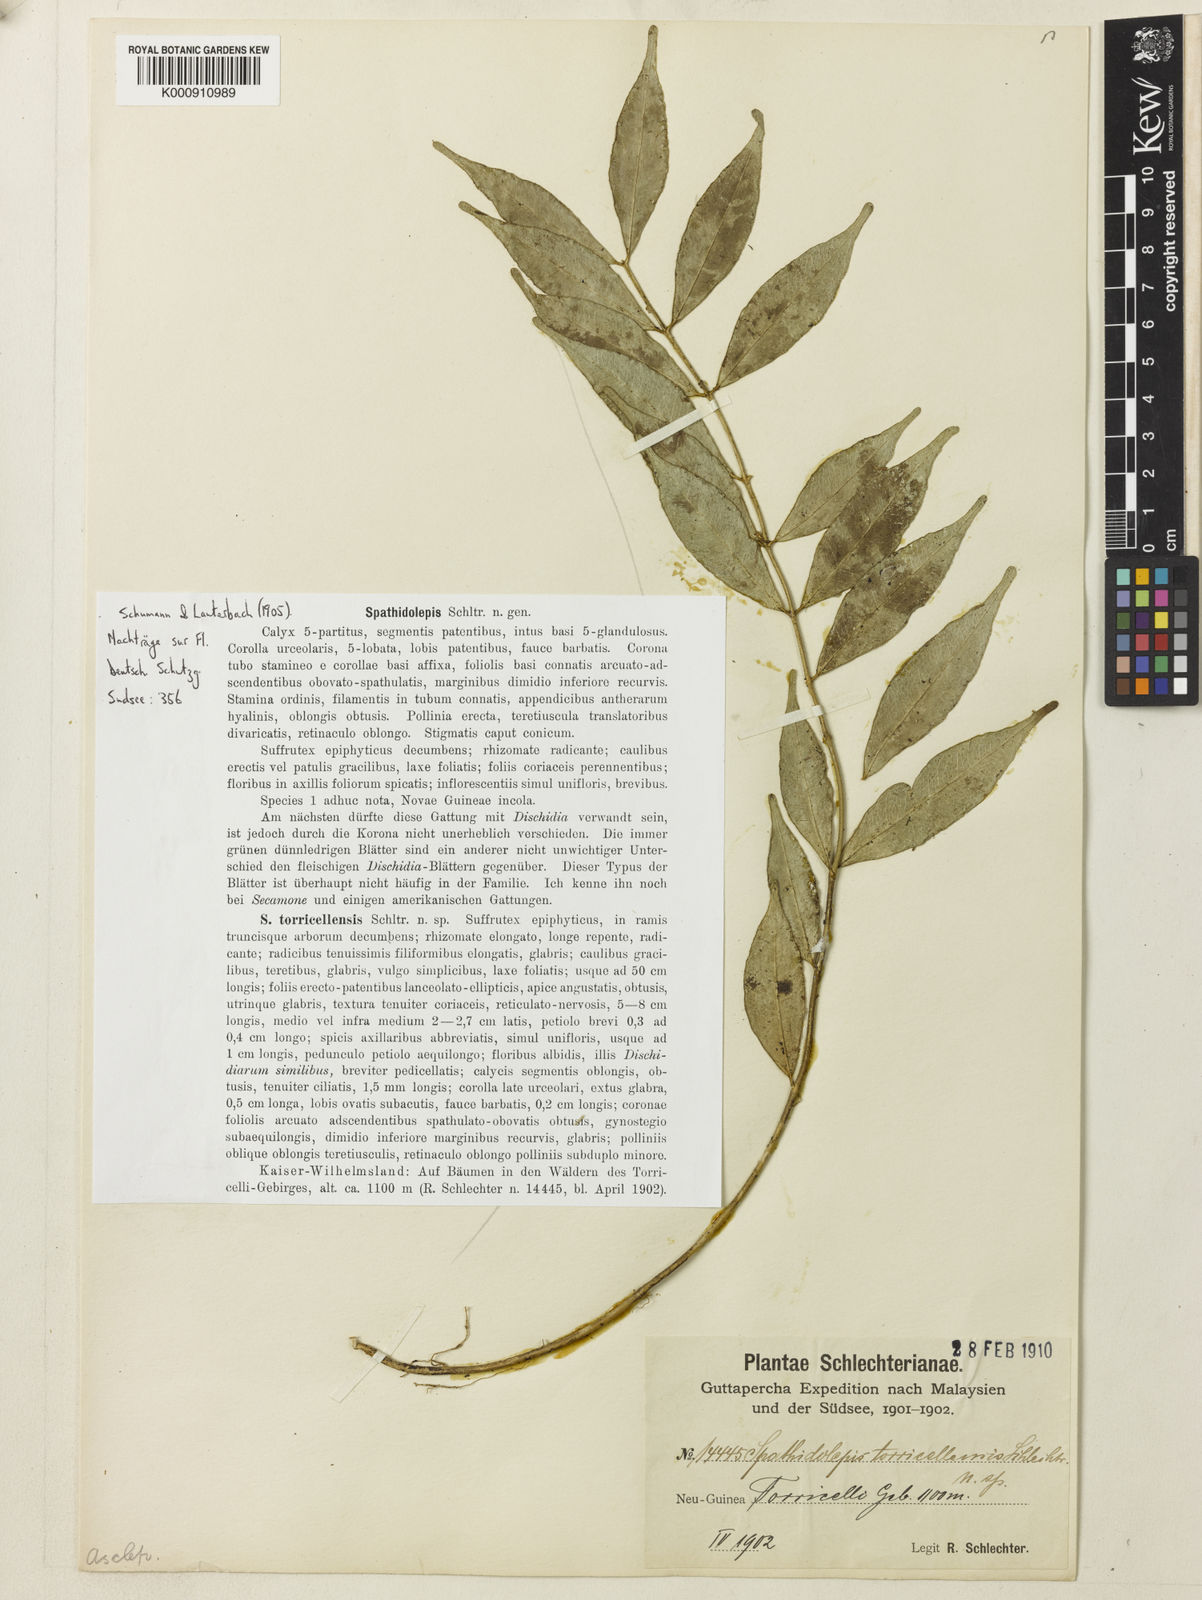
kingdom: Plantae
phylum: Tracheophyta
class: Magnoliopsida
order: Gentianales
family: Apocynaceae
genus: Dischidia
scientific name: Dischidia torricellensis
